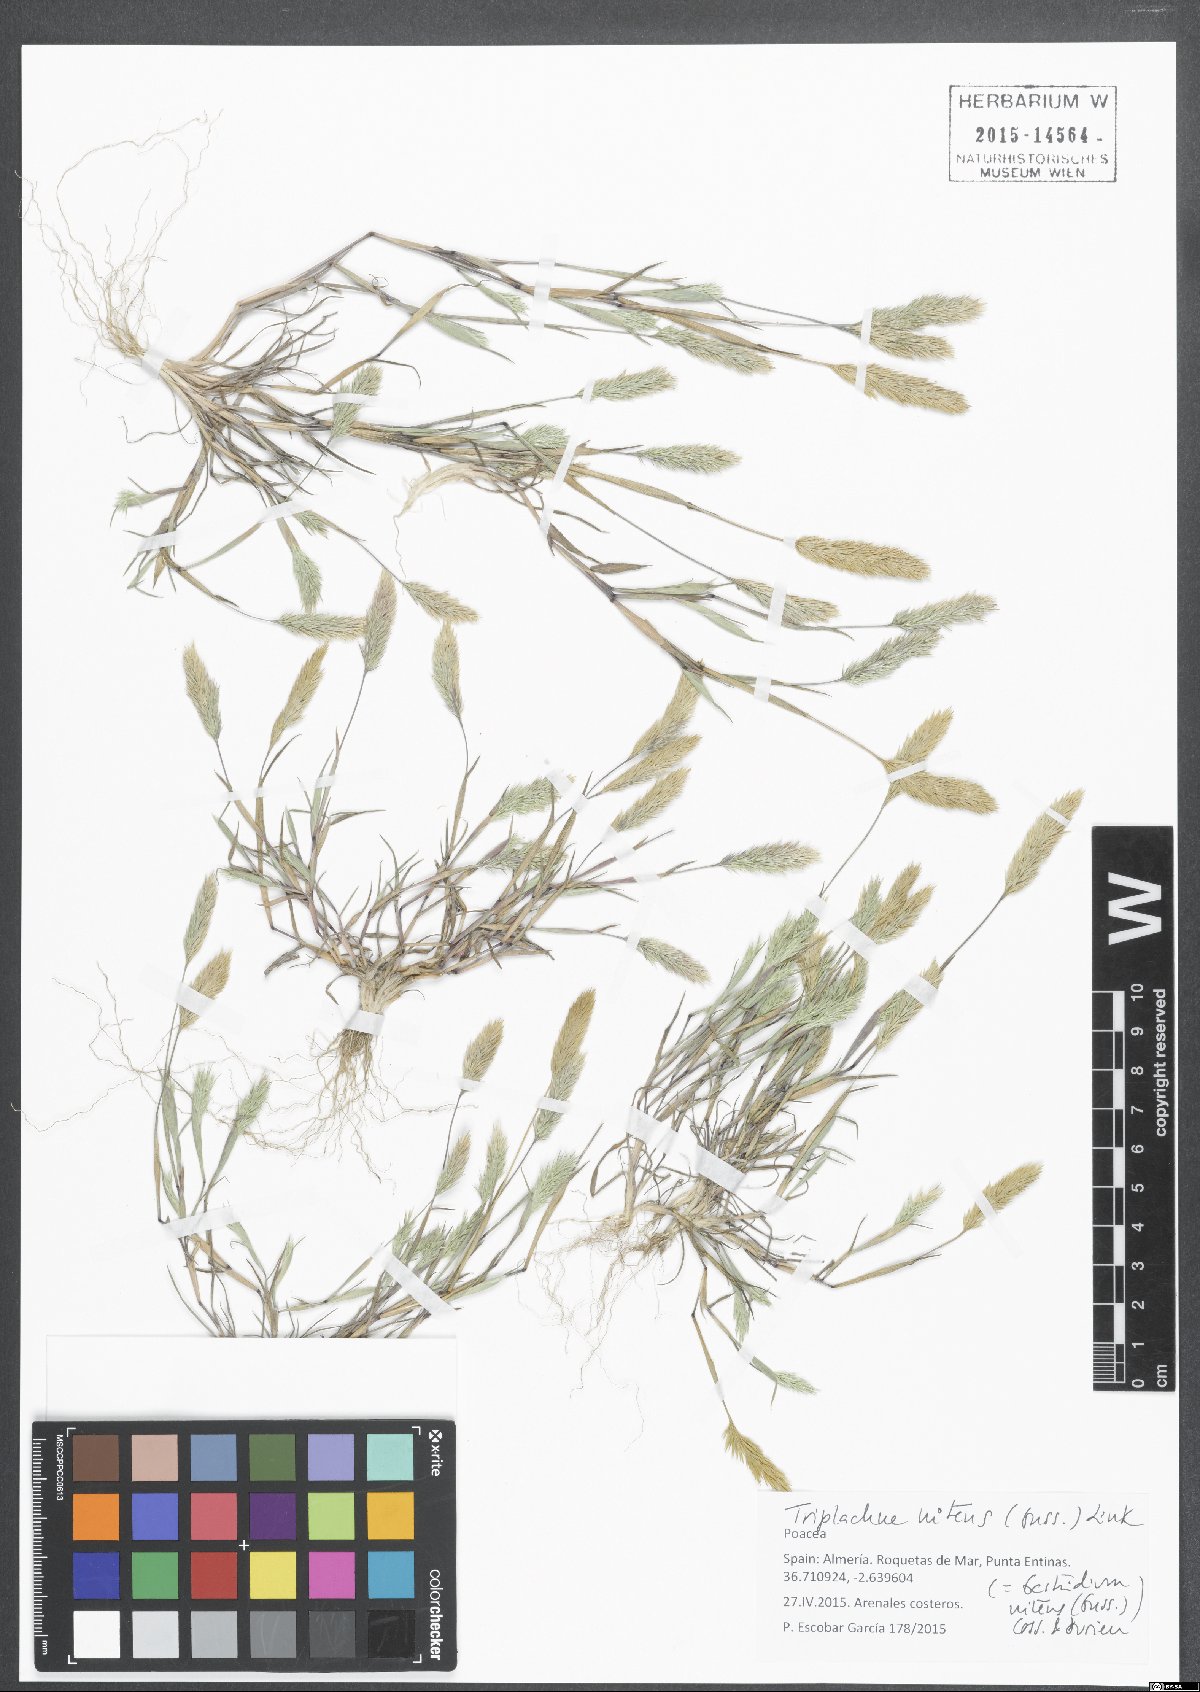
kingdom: Plantae
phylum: Tracheophyta
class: Liliopsida
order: Poales
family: Poaceae
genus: Triplachne
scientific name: Triplachne nitens
